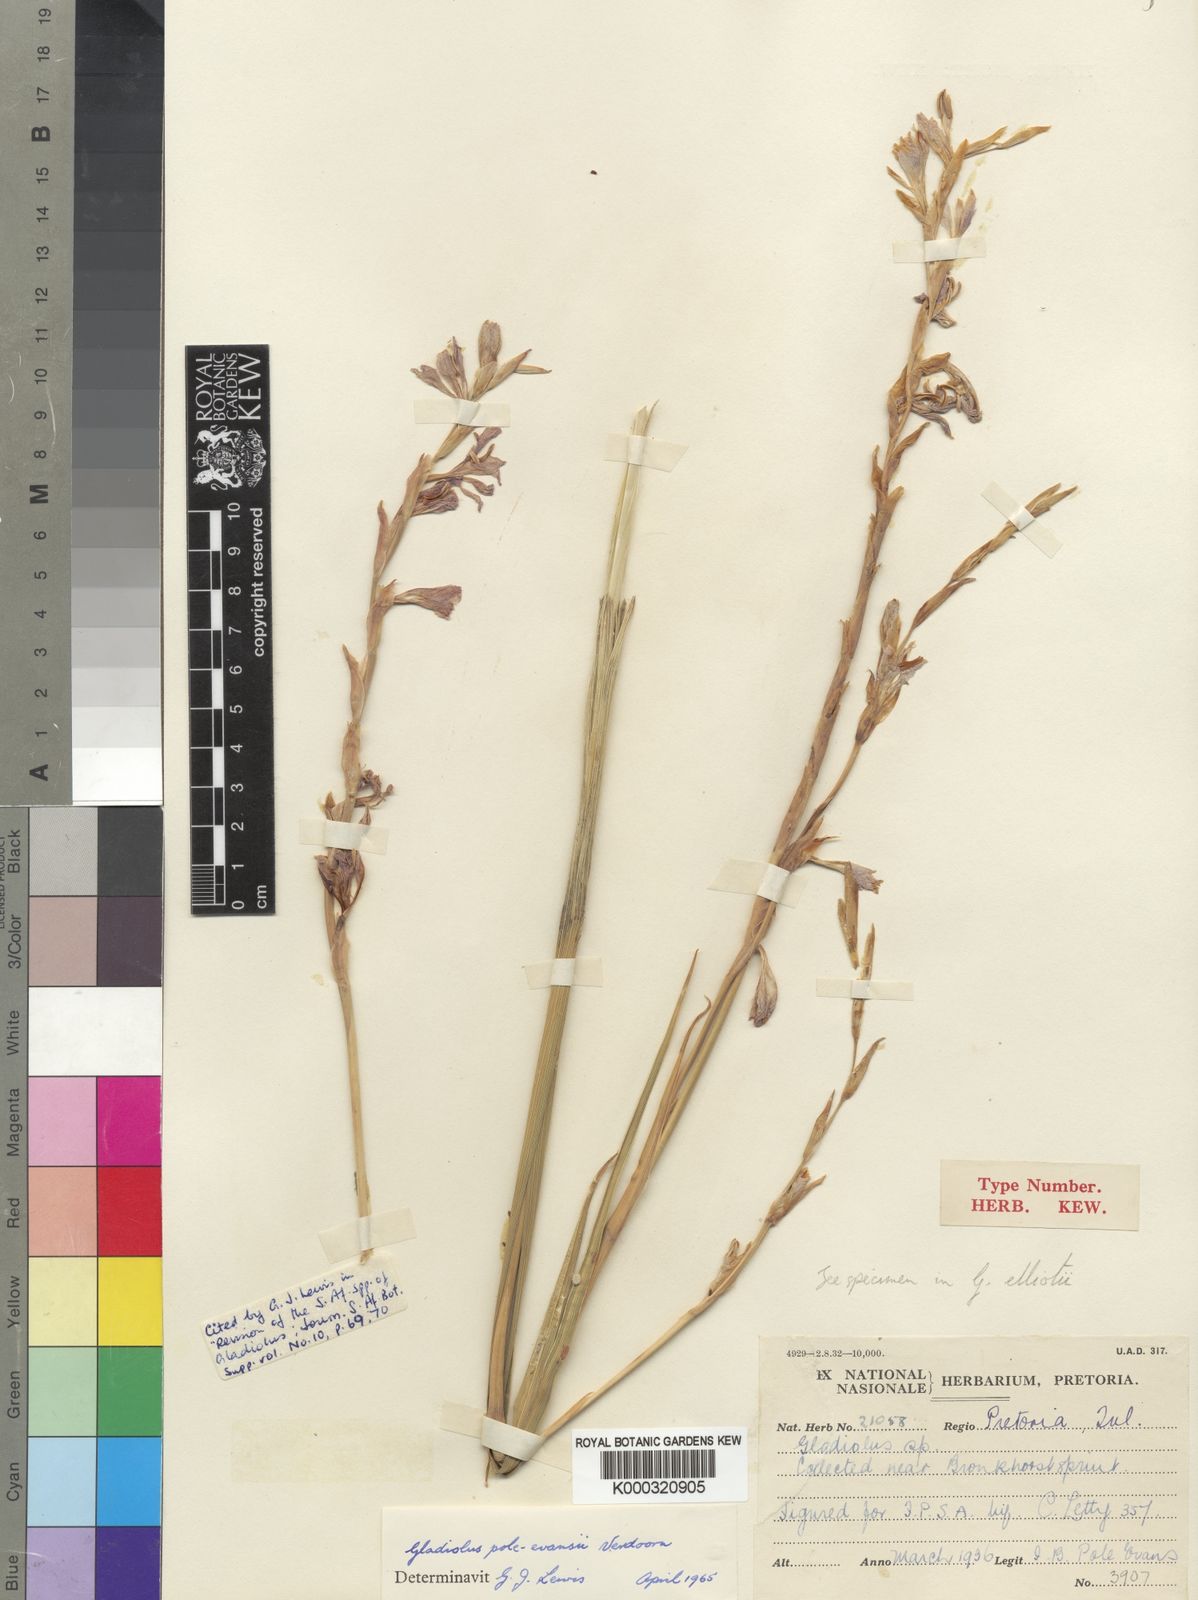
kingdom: Plantae
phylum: Tracheophyta
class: Liliopsida
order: Asparagales
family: Iridaceae
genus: Gladiolus
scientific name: Gladiolus pole-evansii
